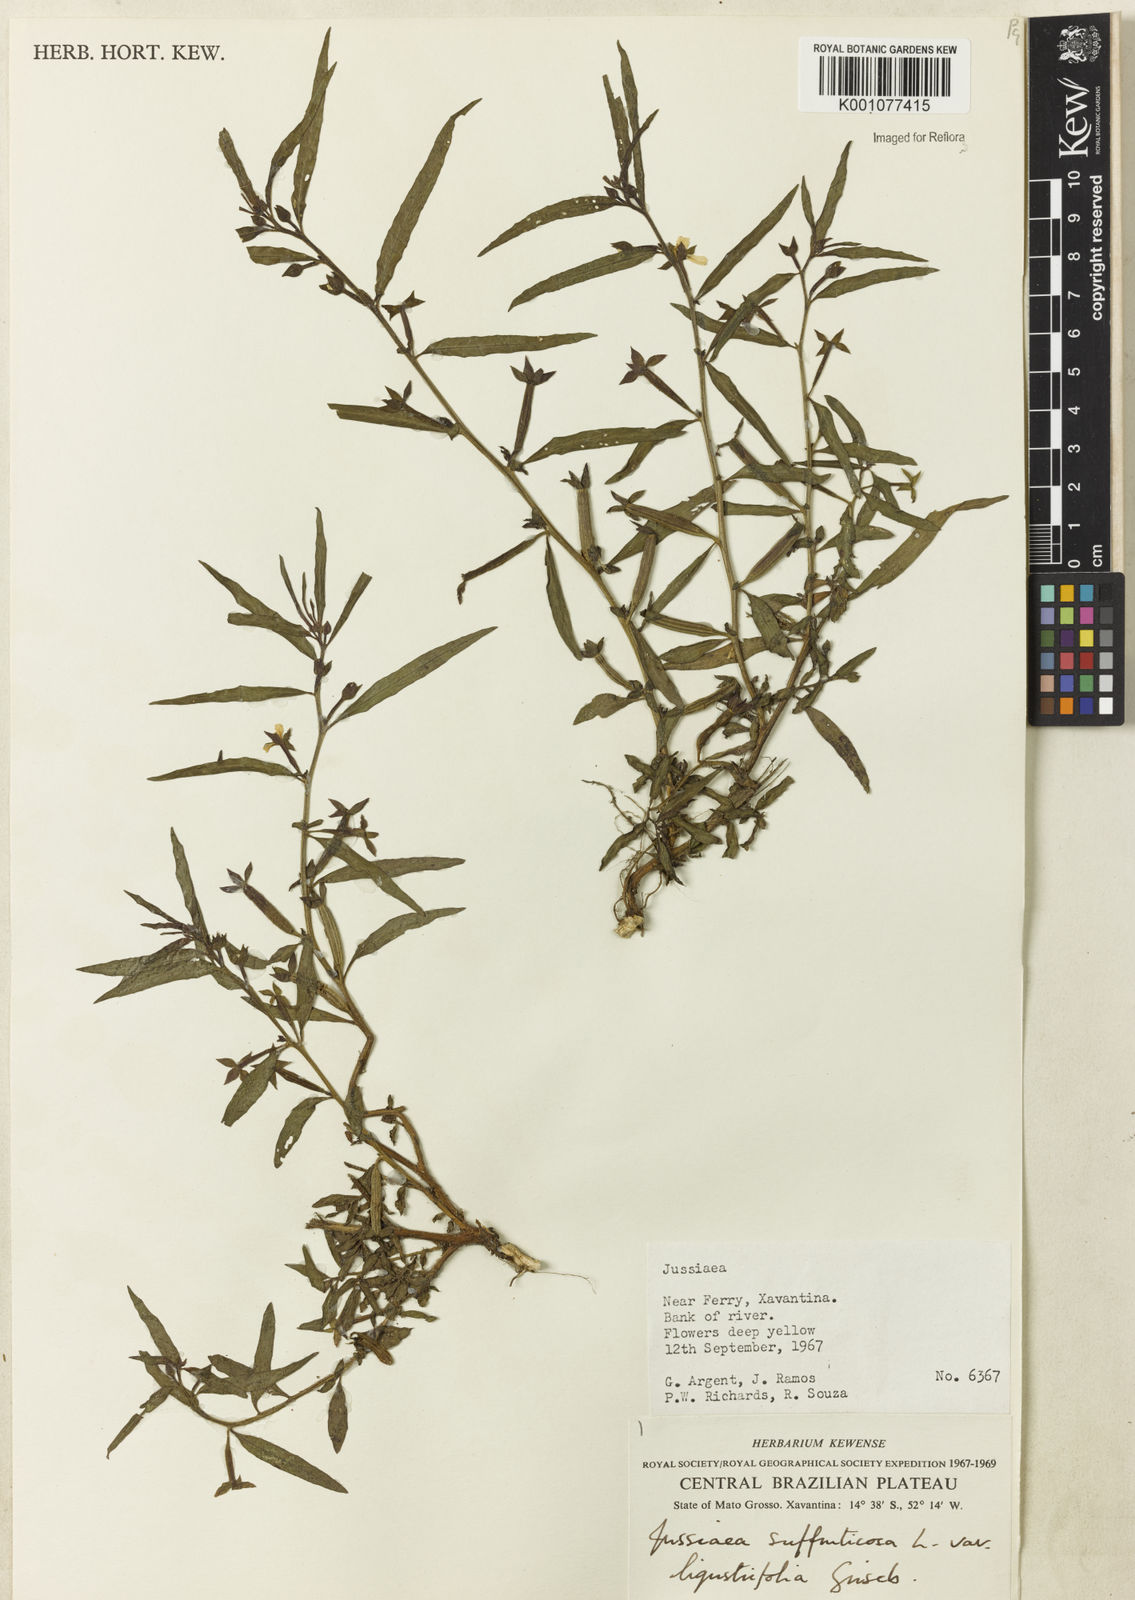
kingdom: Plantae
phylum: Tracheophyta
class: Magnoliopsida
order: Myrtales
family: Onagraceae
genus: Ludwigia
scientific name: Ludwigia octovalvis
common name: Water-primrose
